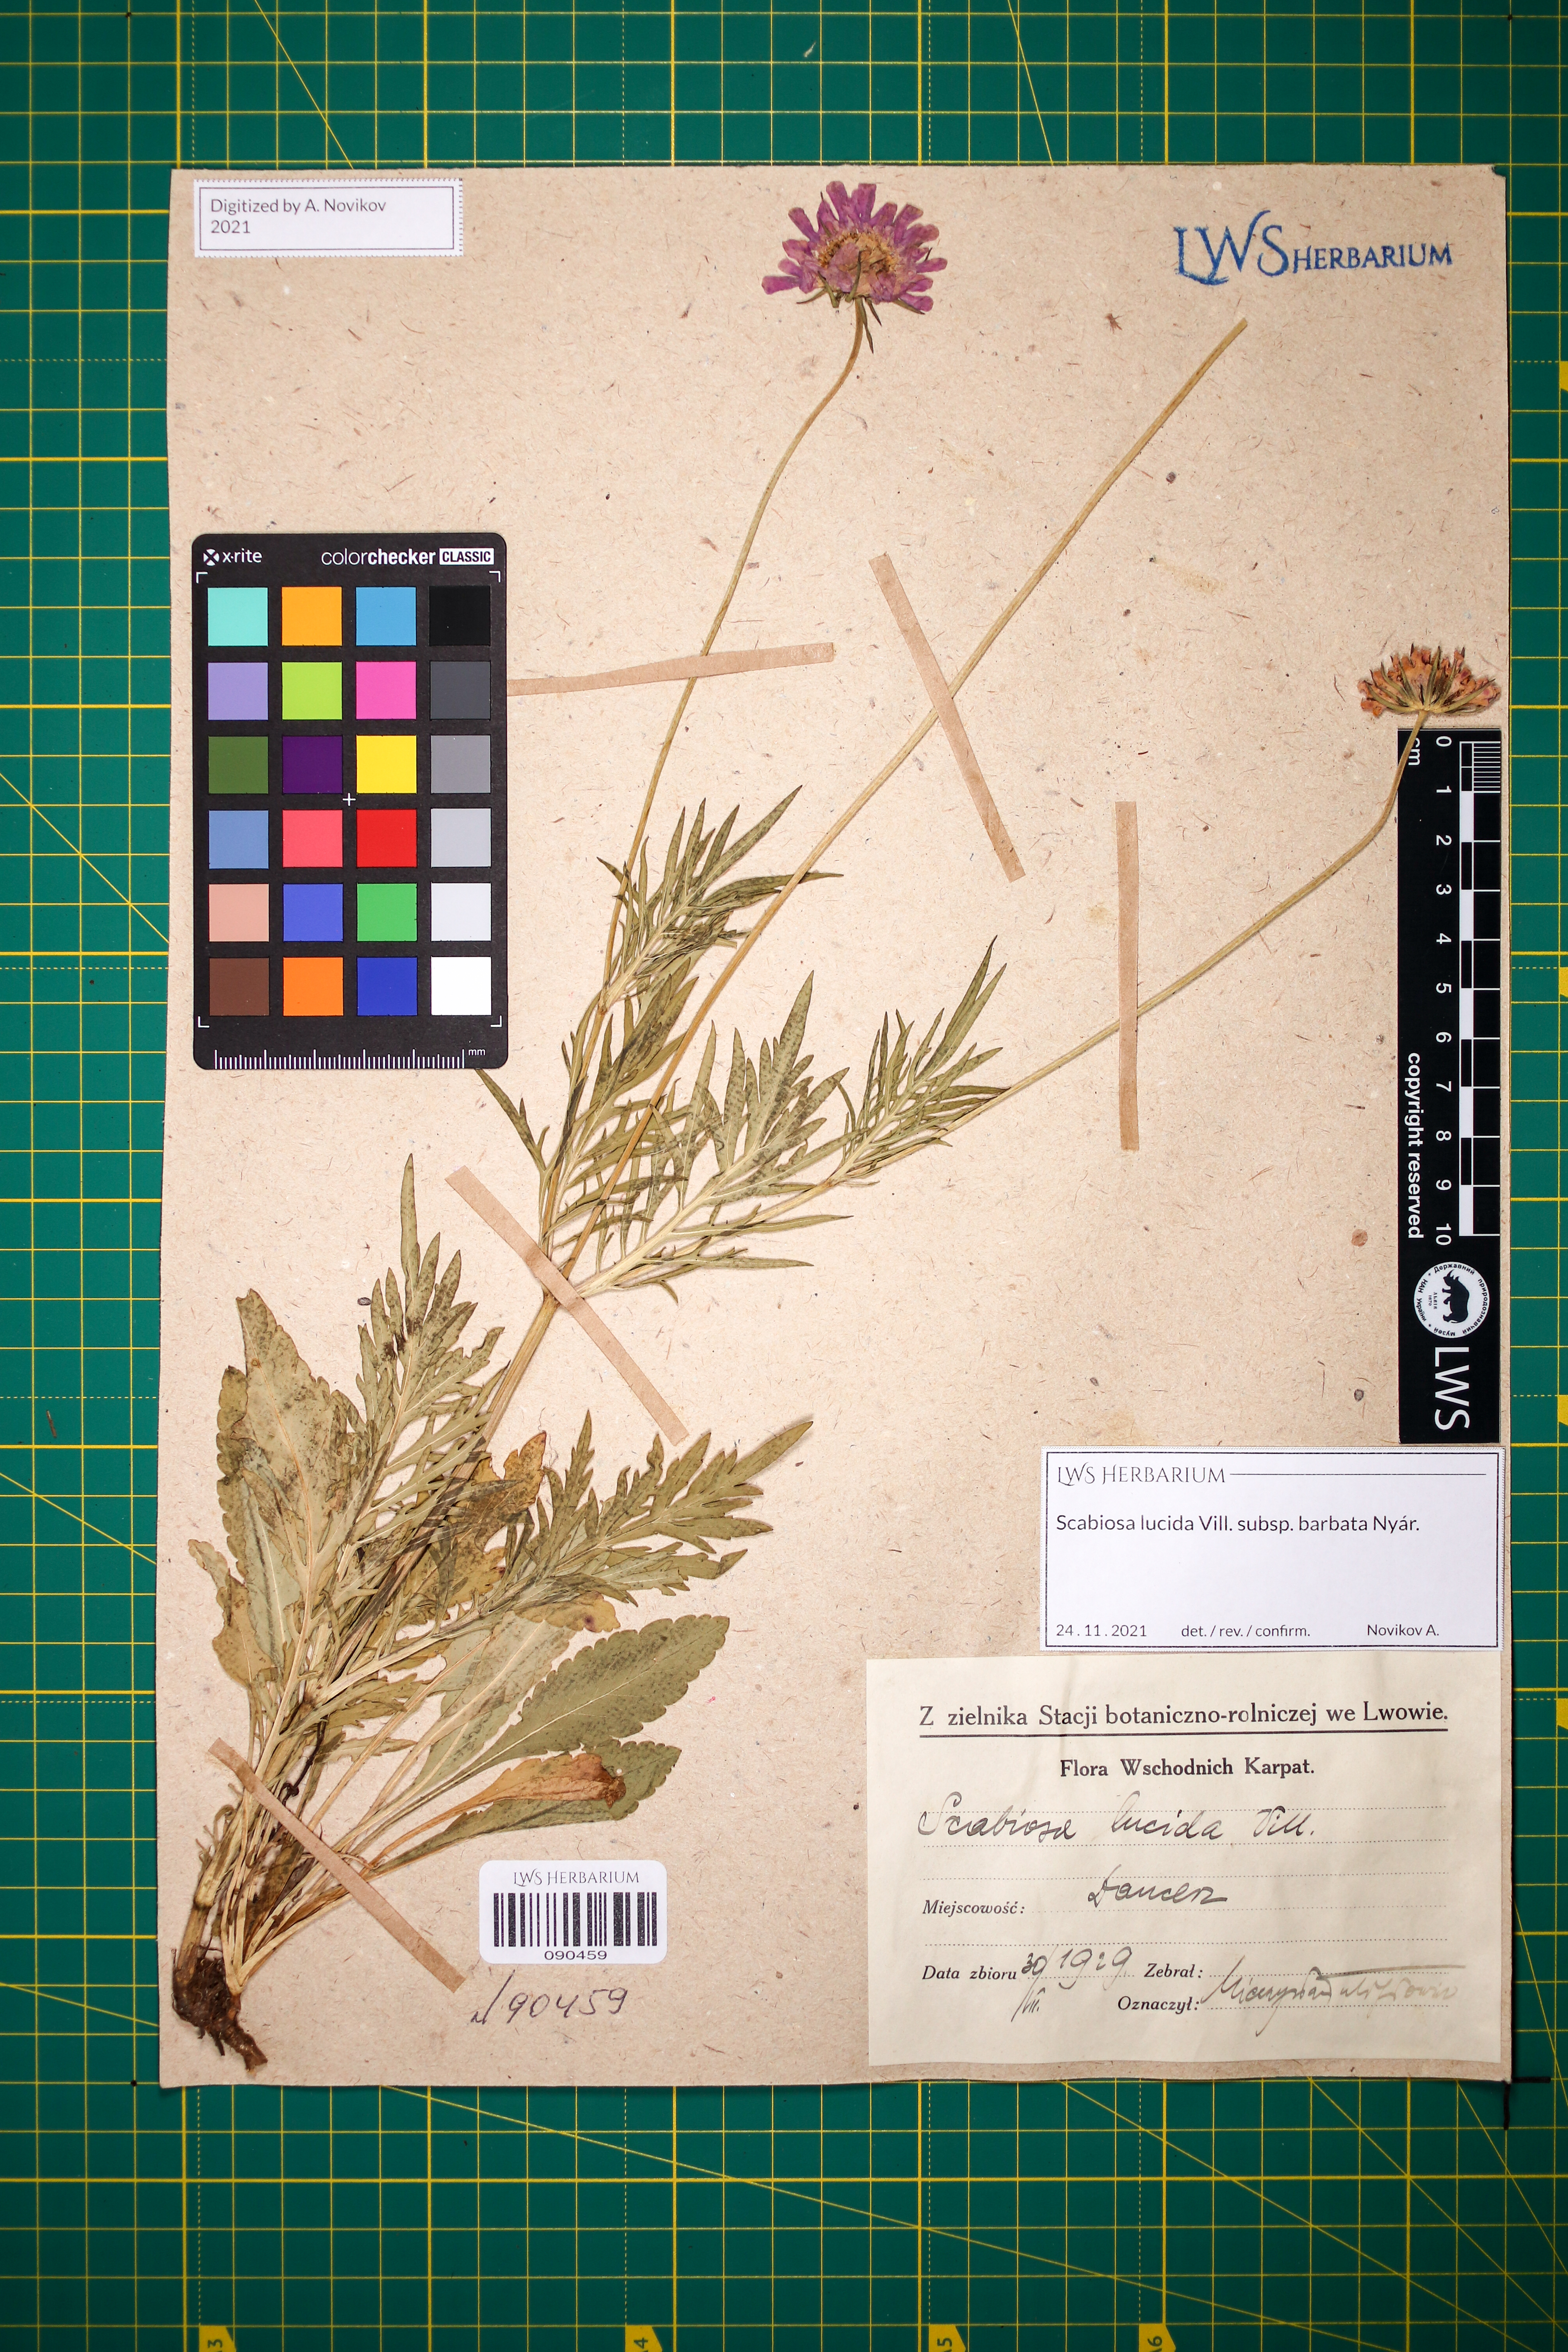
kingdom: Plantae
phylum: Tracheophyta
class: Magnoliopsida
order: Dipsacales
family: Caprifoliaceae
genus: Scabiosa
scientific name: Scabiosa lucida
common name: Shining scabious
